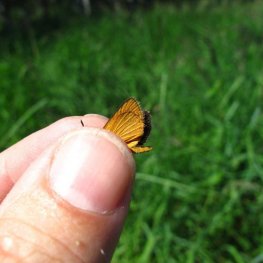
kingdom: Animalia
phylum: Arthropoda
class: Insecta
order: Lepidoptera
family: Hesperiidae
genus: Ancyloxypha
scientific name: Ancyloxypha numitor
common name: Least Skipper
